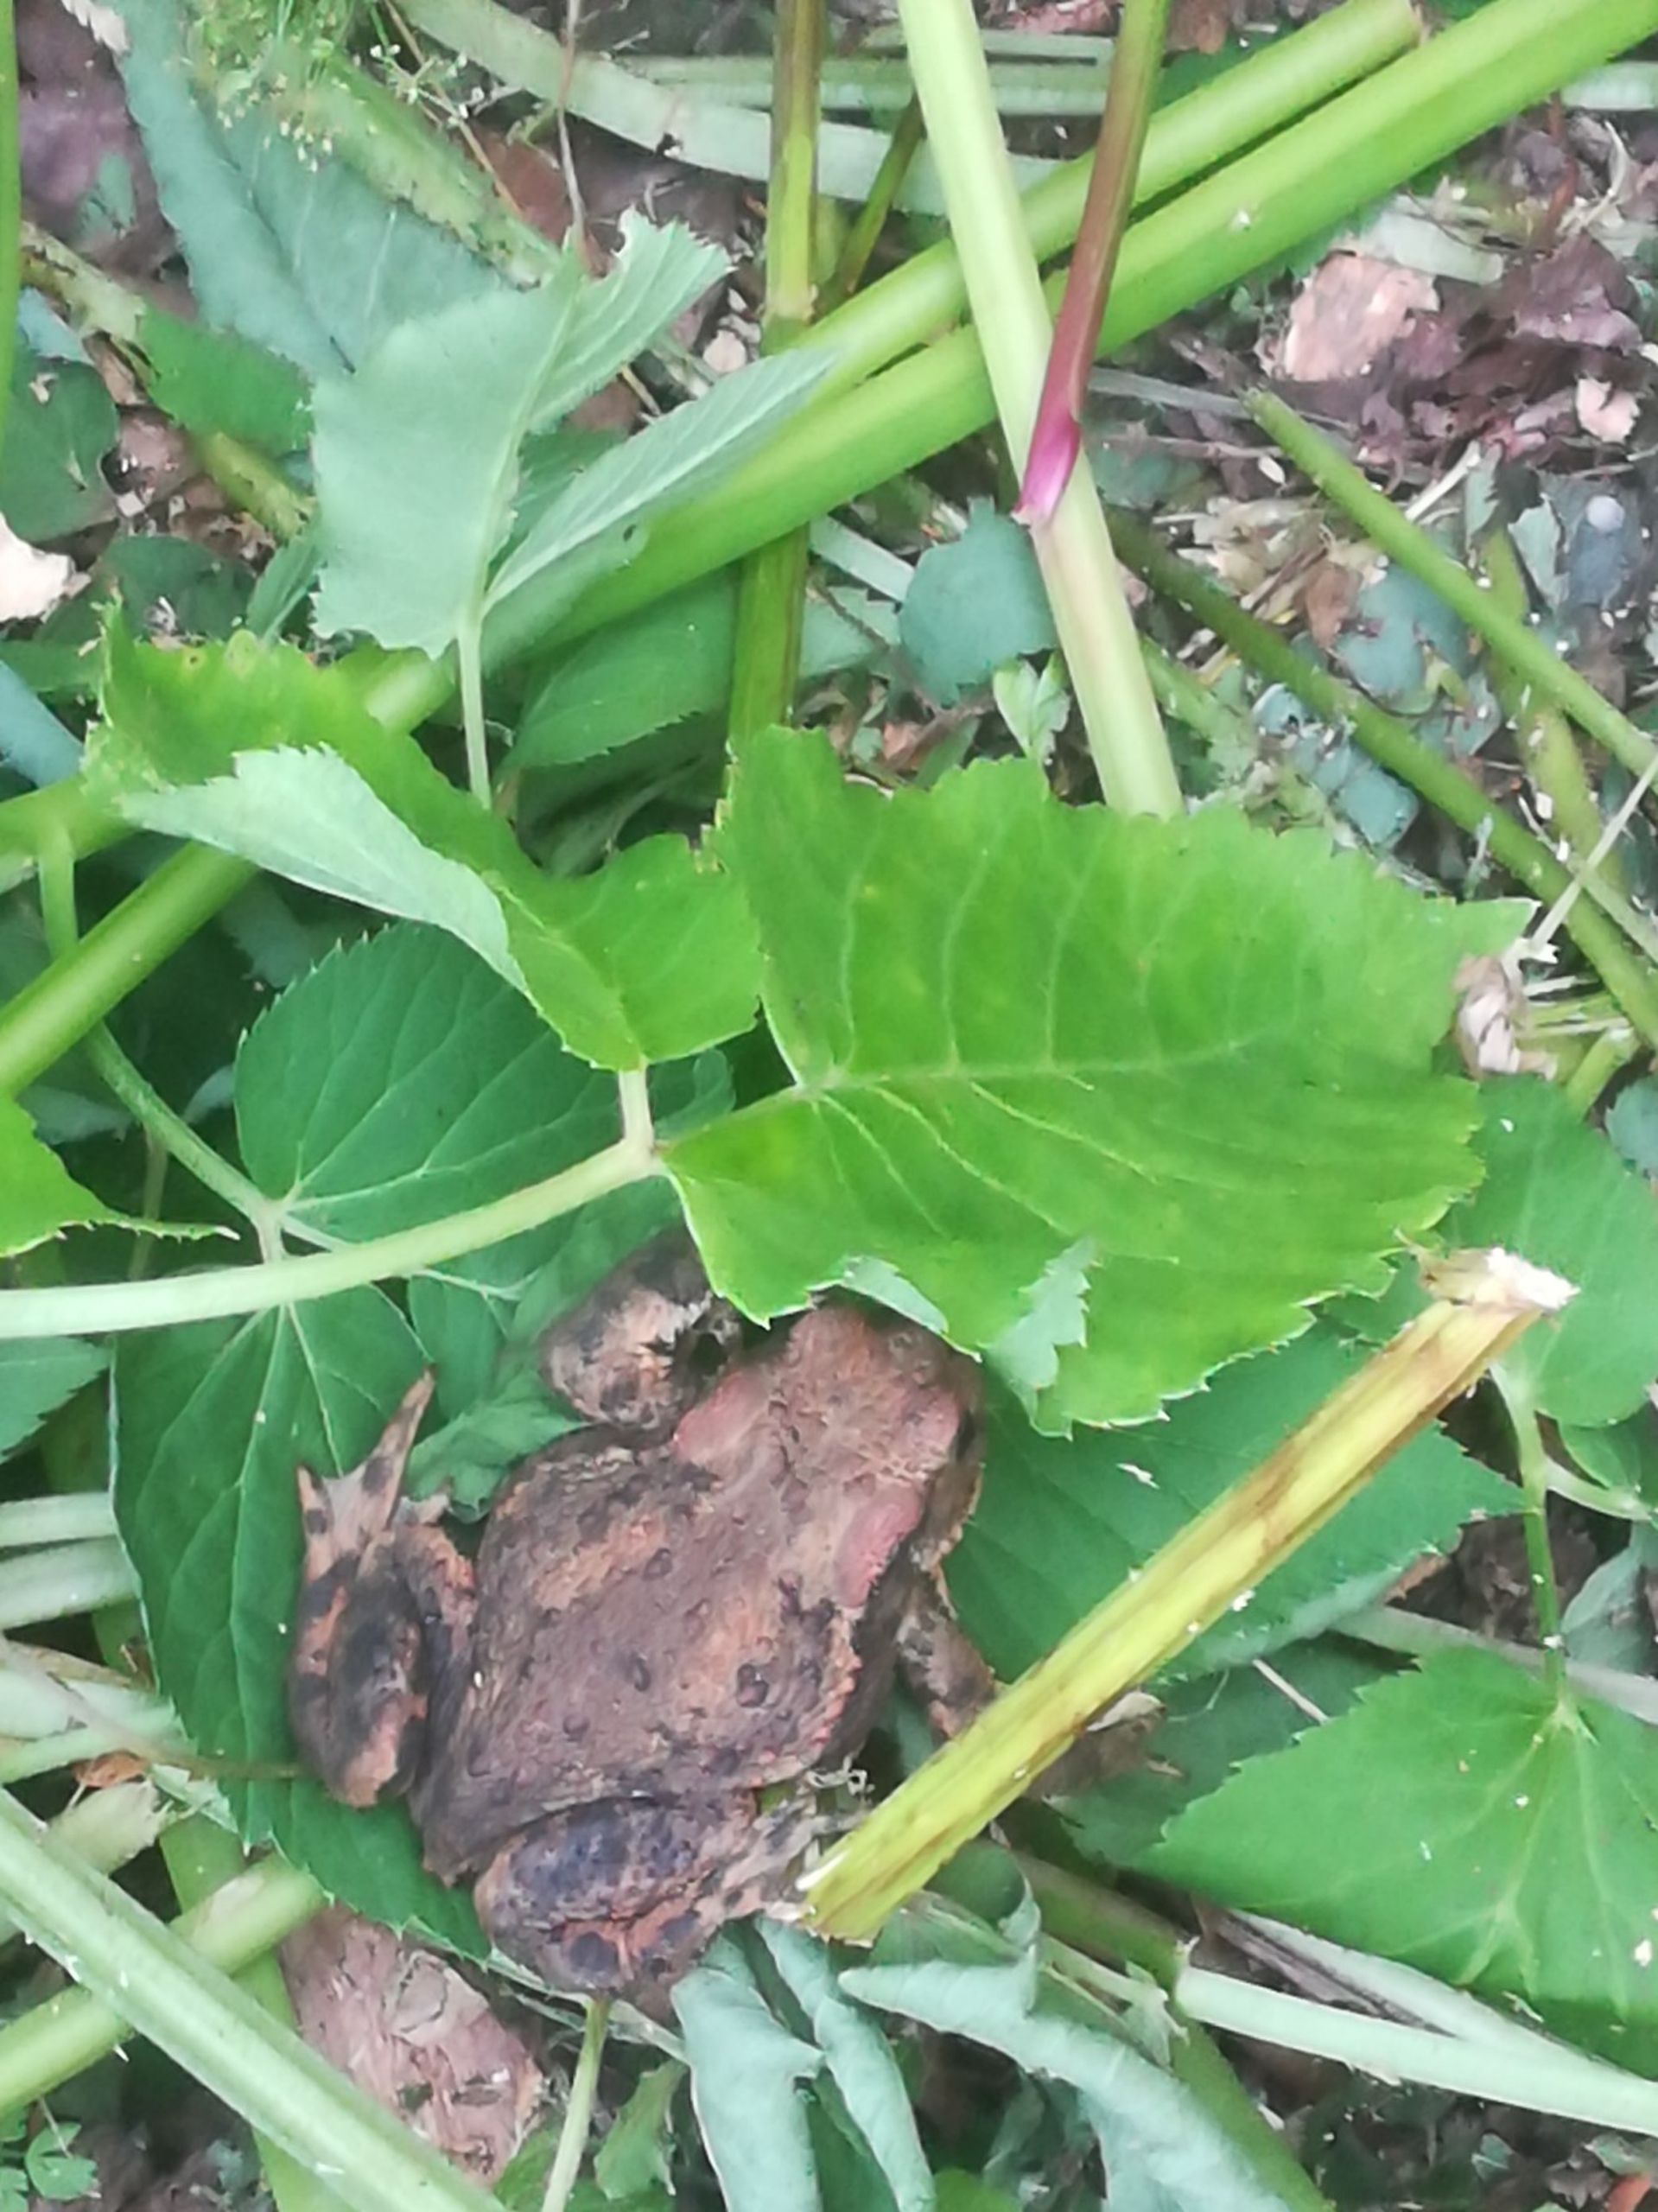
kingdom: Animalia
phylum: Chordata
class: Amphibia
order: Anura
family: Bufonidae
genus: Bufo
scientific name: Bufo bufo
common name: Skrubtudse
